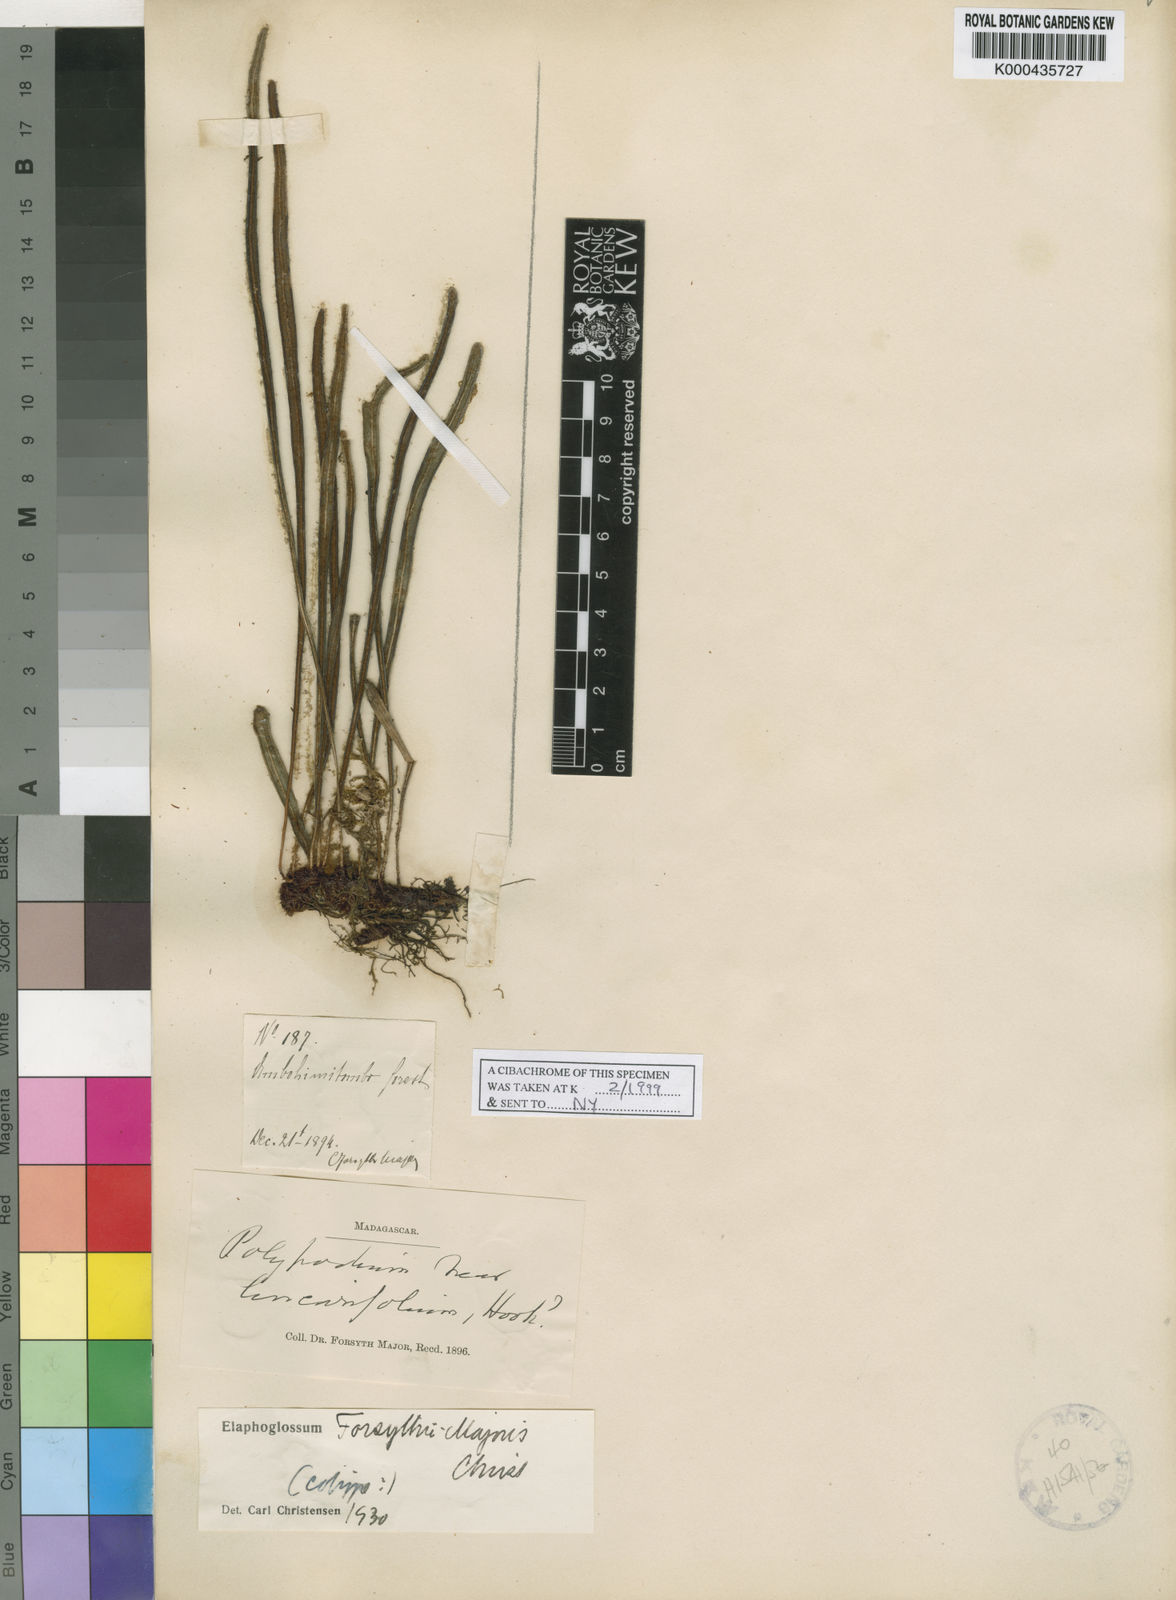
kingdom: Plantae
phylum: Tracheophyta
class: Polypodiopsida
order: Polypodiales
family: Dryopteridaceae
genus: Elaphoglossum
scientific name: Elaphoglossum forsythii-majoris
